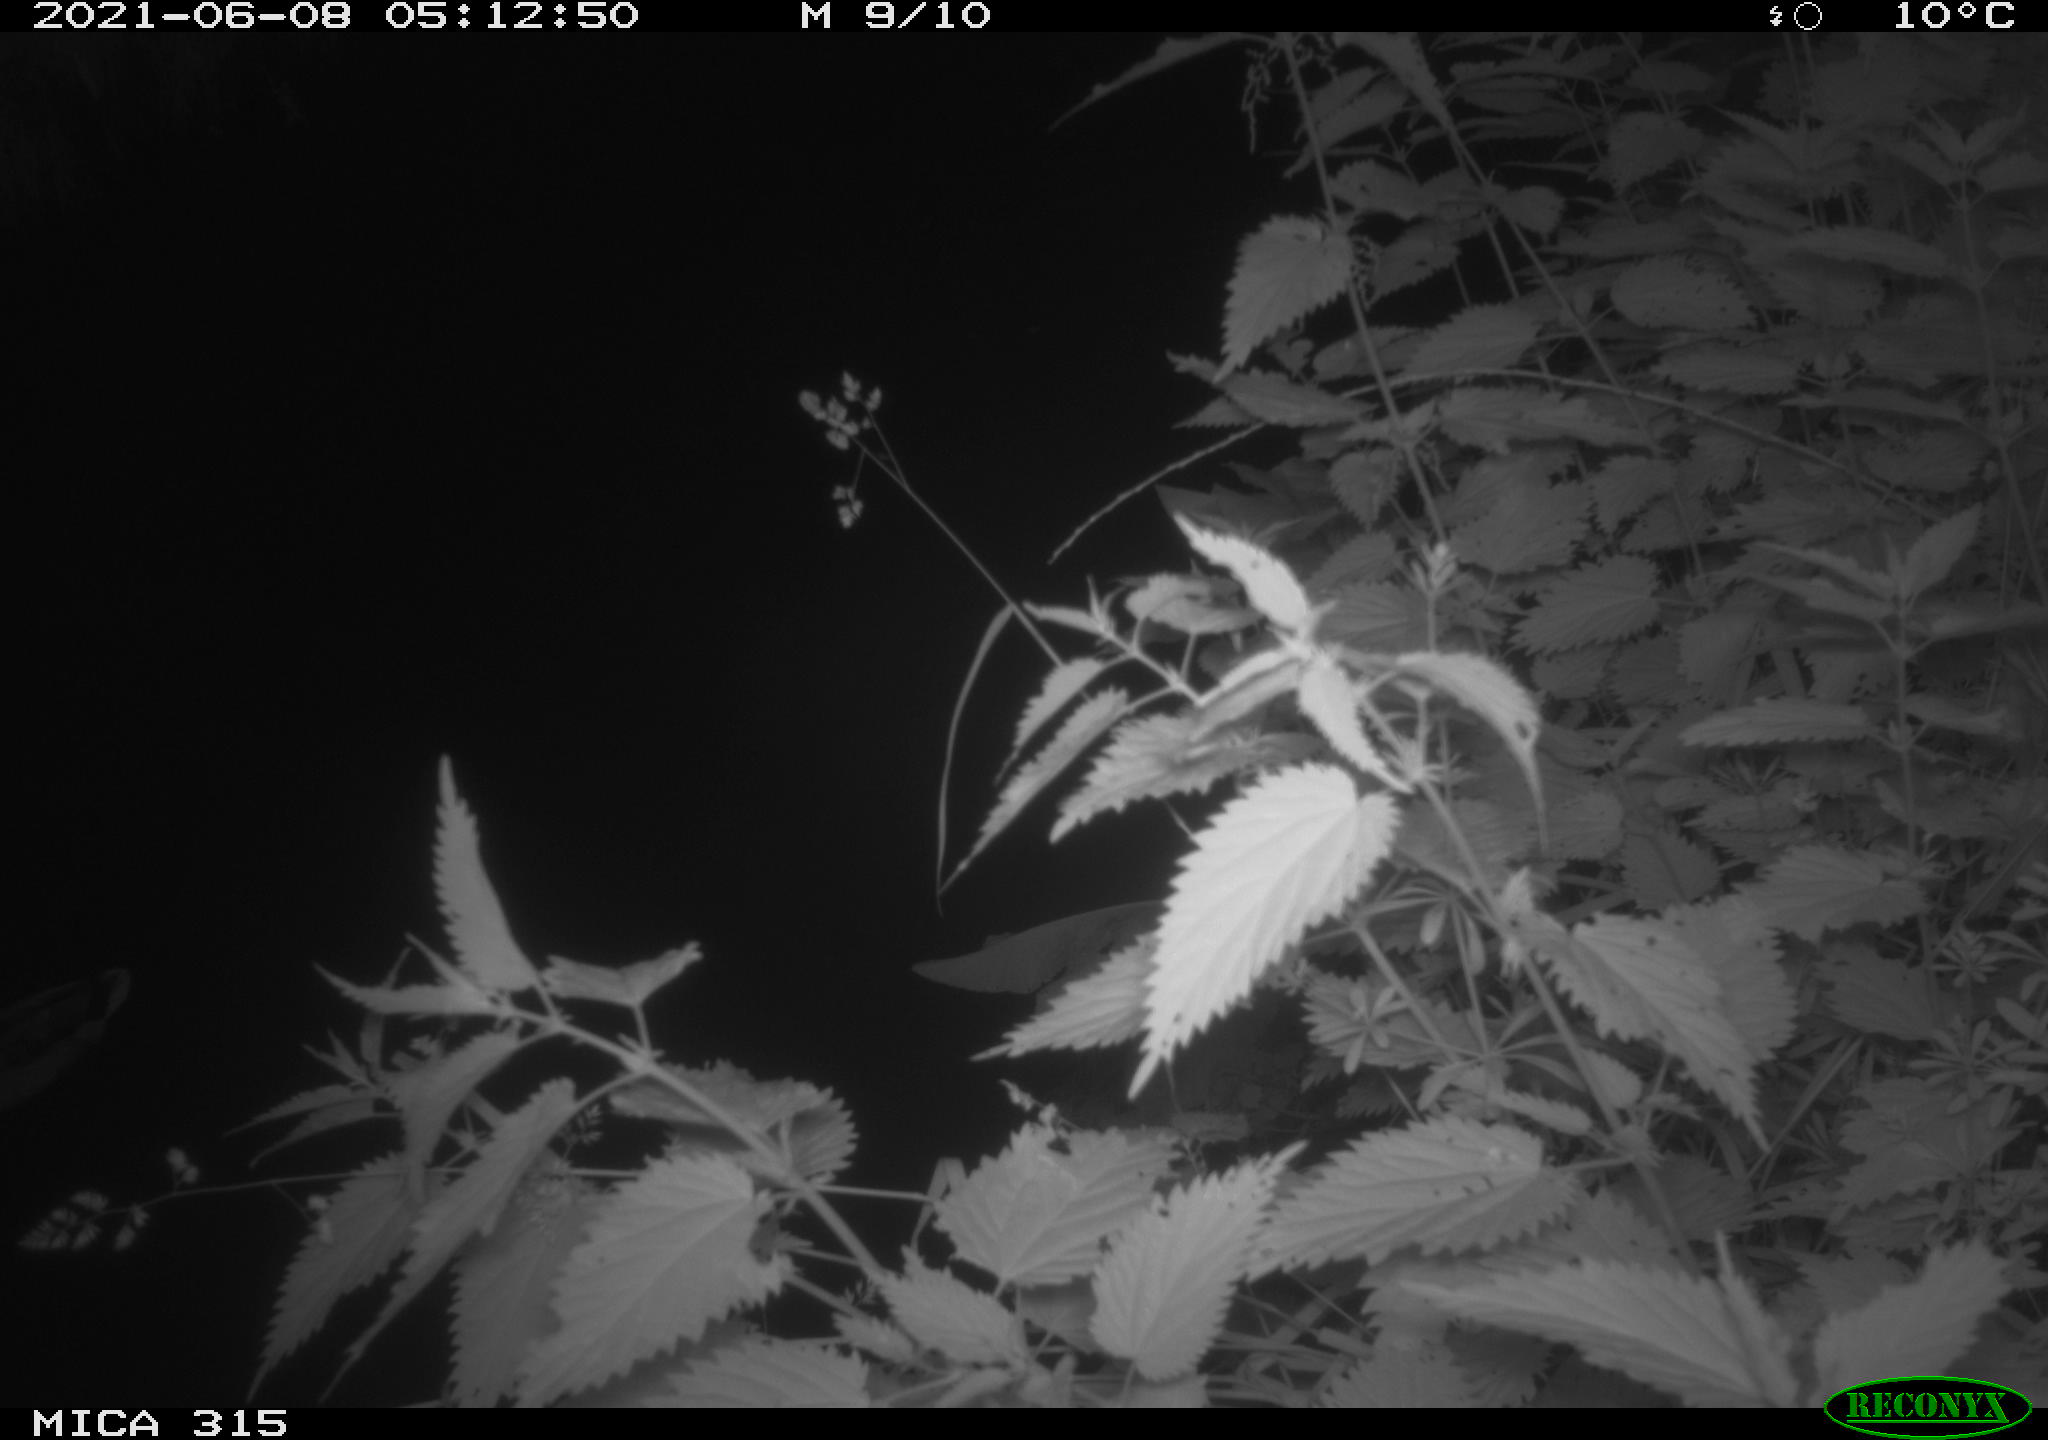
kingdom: Animalia
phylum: Chordata
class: Aves
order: Anseriformes
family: Anatidae
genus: Anas
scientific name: Anas platyrhynchos
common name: Mallard
